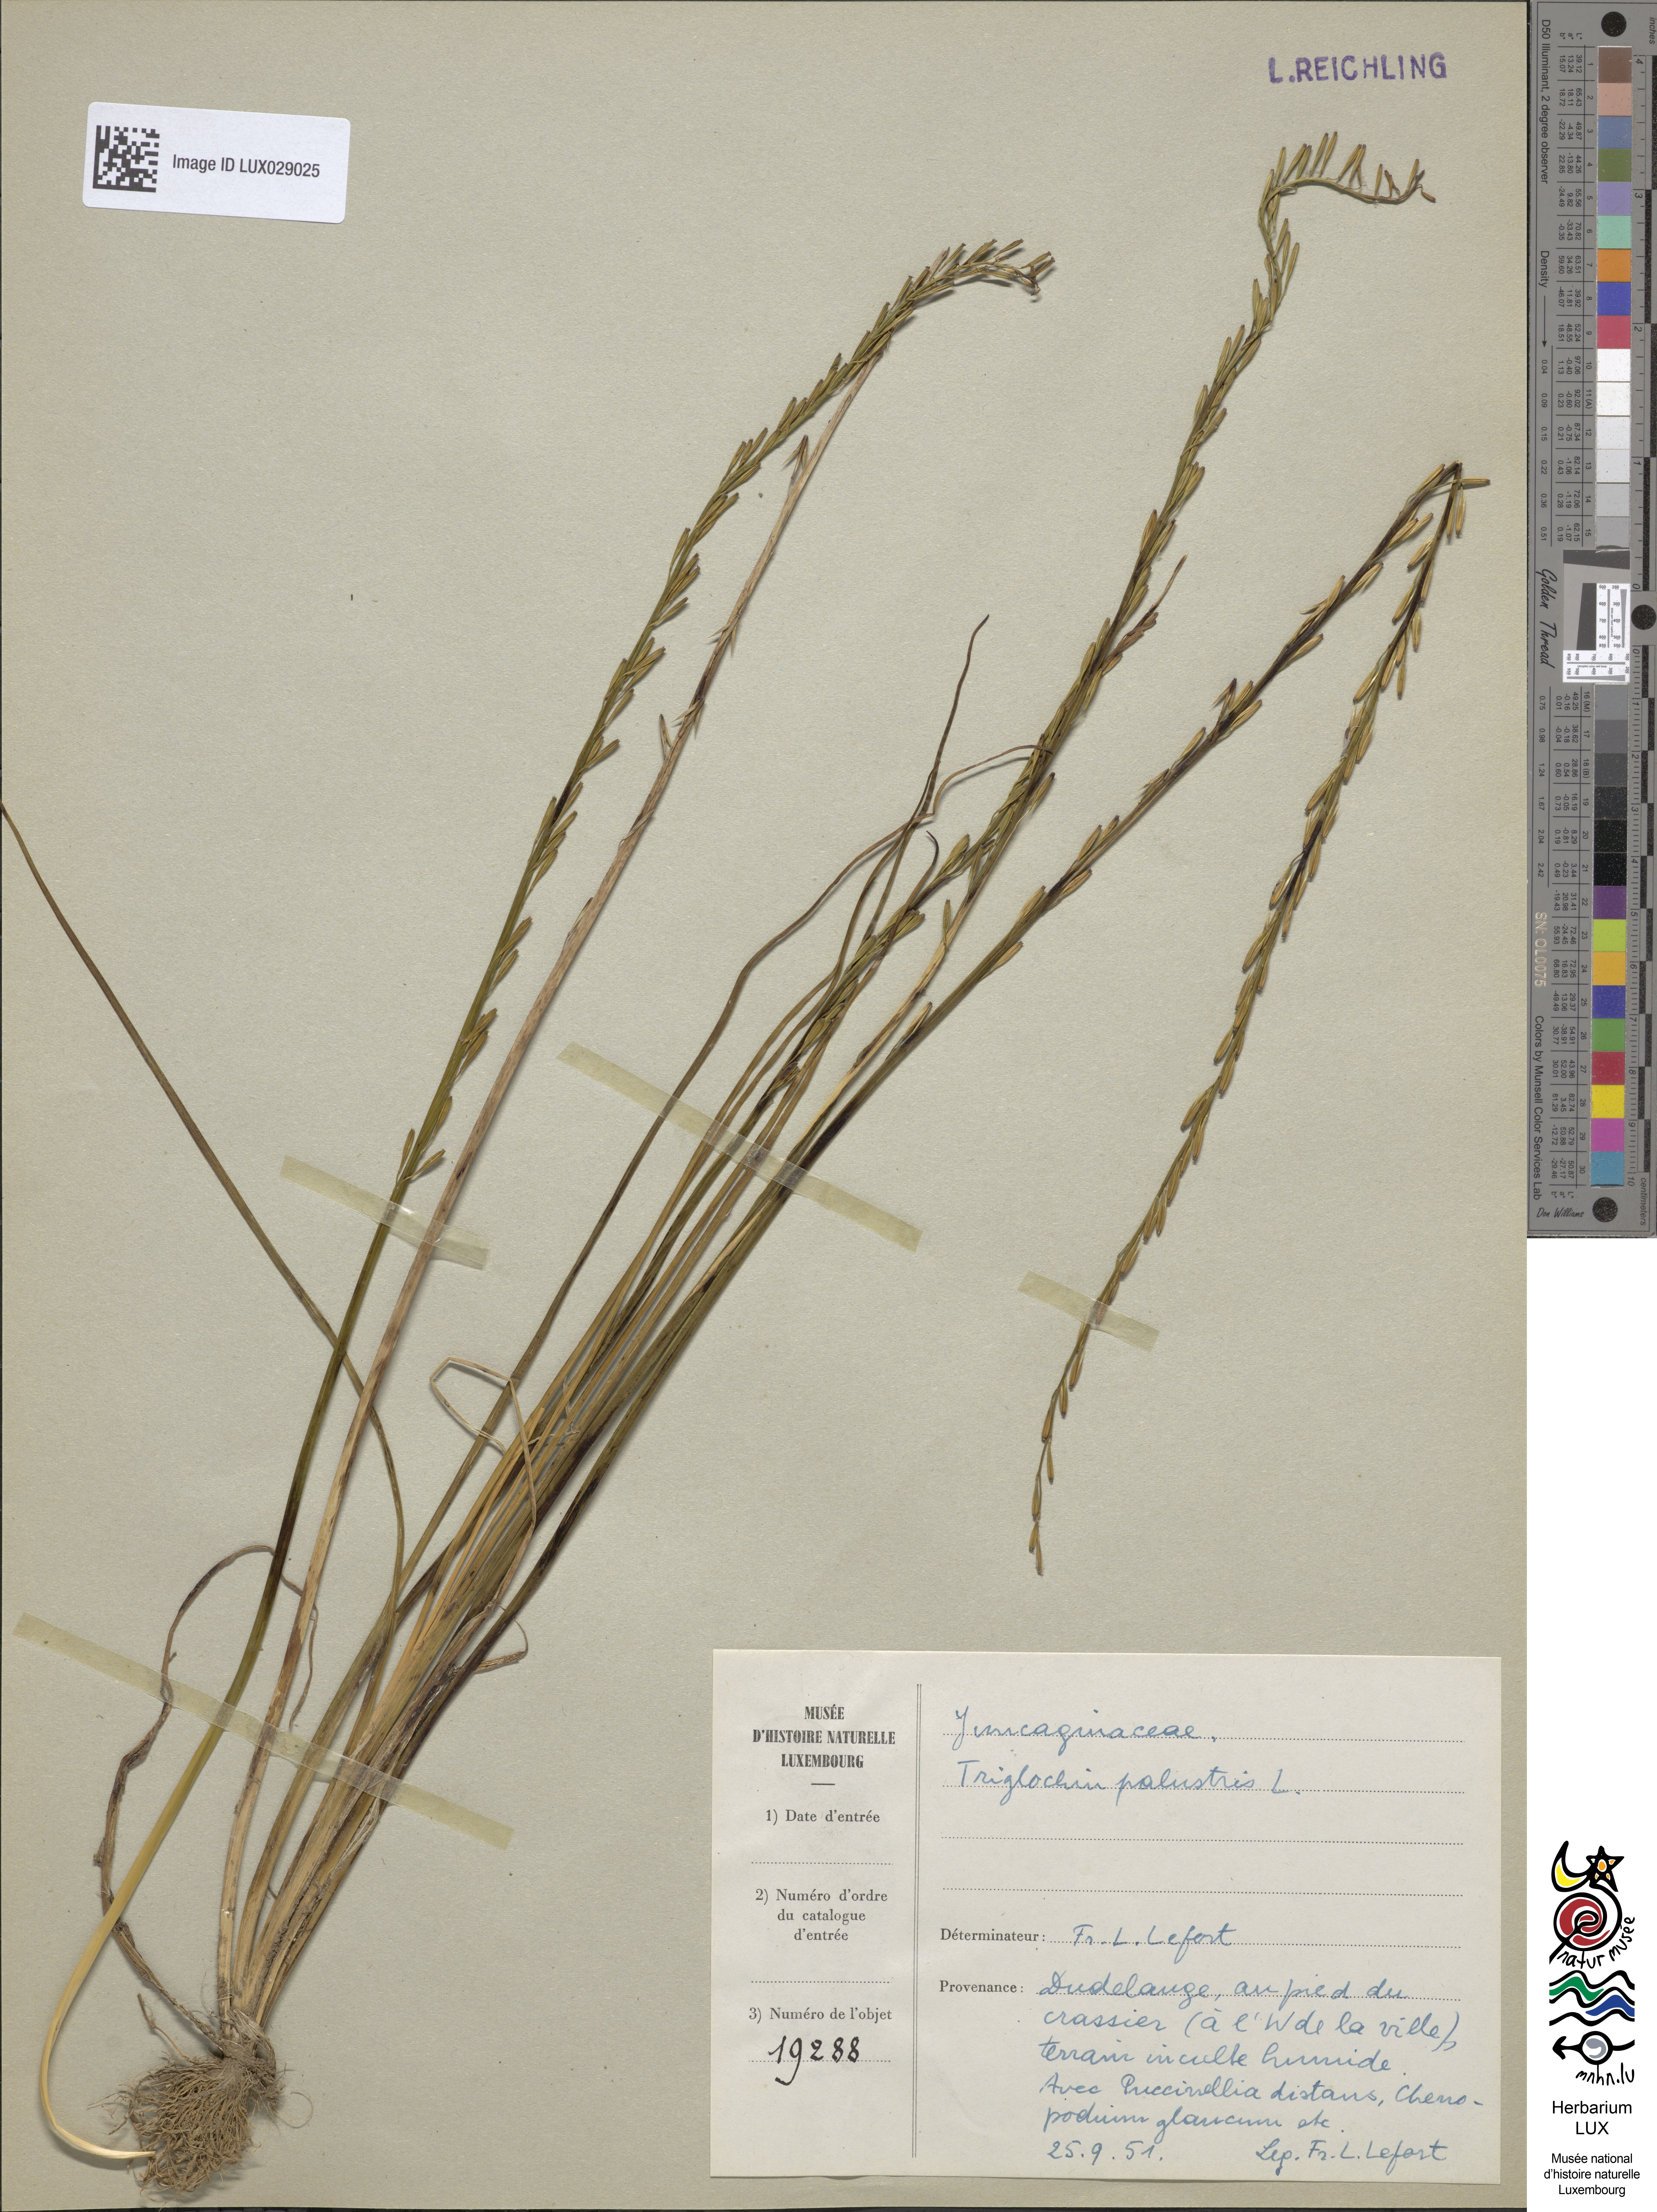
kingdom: Plantae
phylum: Tracheophyta
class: Liliopsida
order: Alismatales
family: Juncaginaceae
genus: Triglochin
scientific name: Triglochin palustris
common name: Marsh arrowgrass
